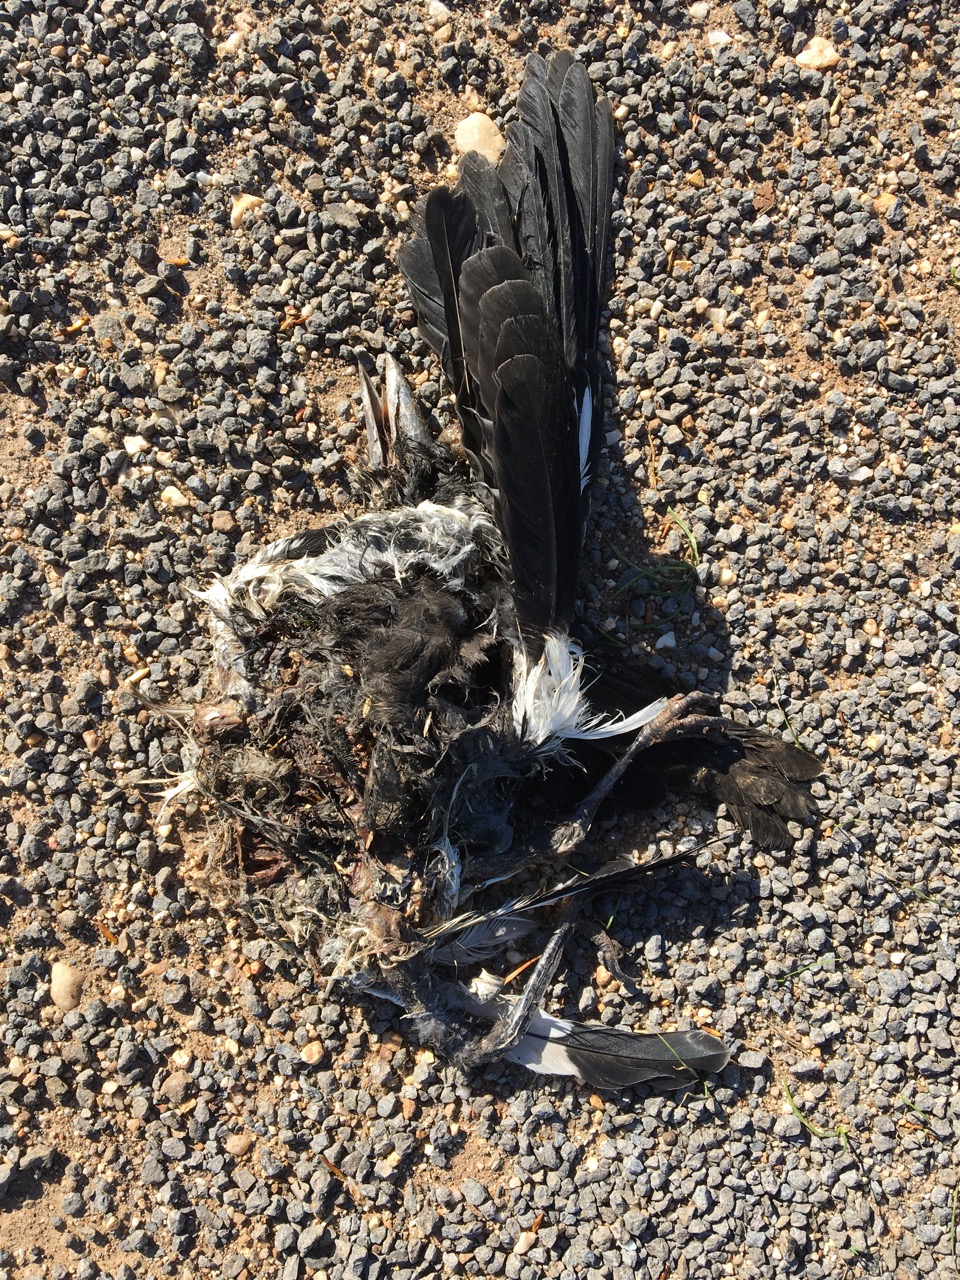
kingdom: Animalia
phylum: Chordata
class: Aves
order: Passeriformes
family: Cracticidae
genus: Gymnorhina
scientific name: Gymnorhina tibicen
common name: Australian magpie
